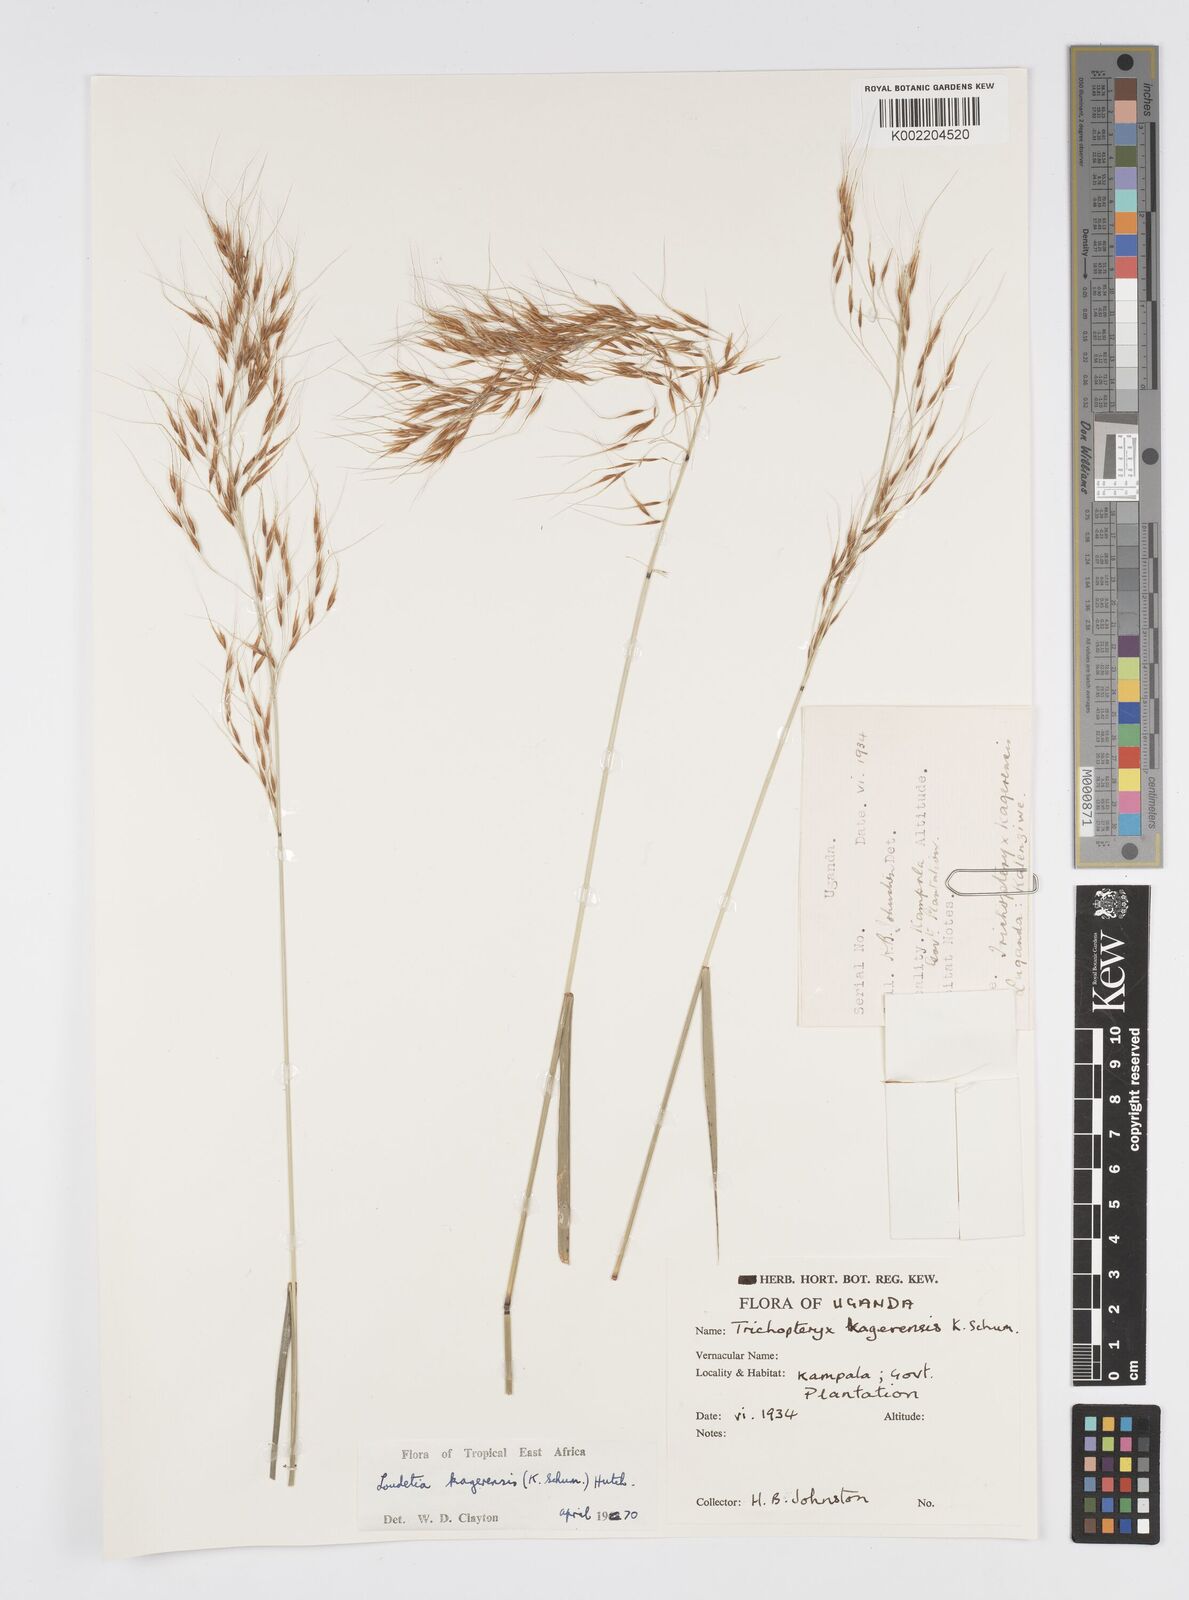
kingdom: Plantae
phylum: Tracheophyta
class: Liliopsida
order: Poales
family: Poaceae
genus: Loudetia
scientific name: Loudetia kagerensis
